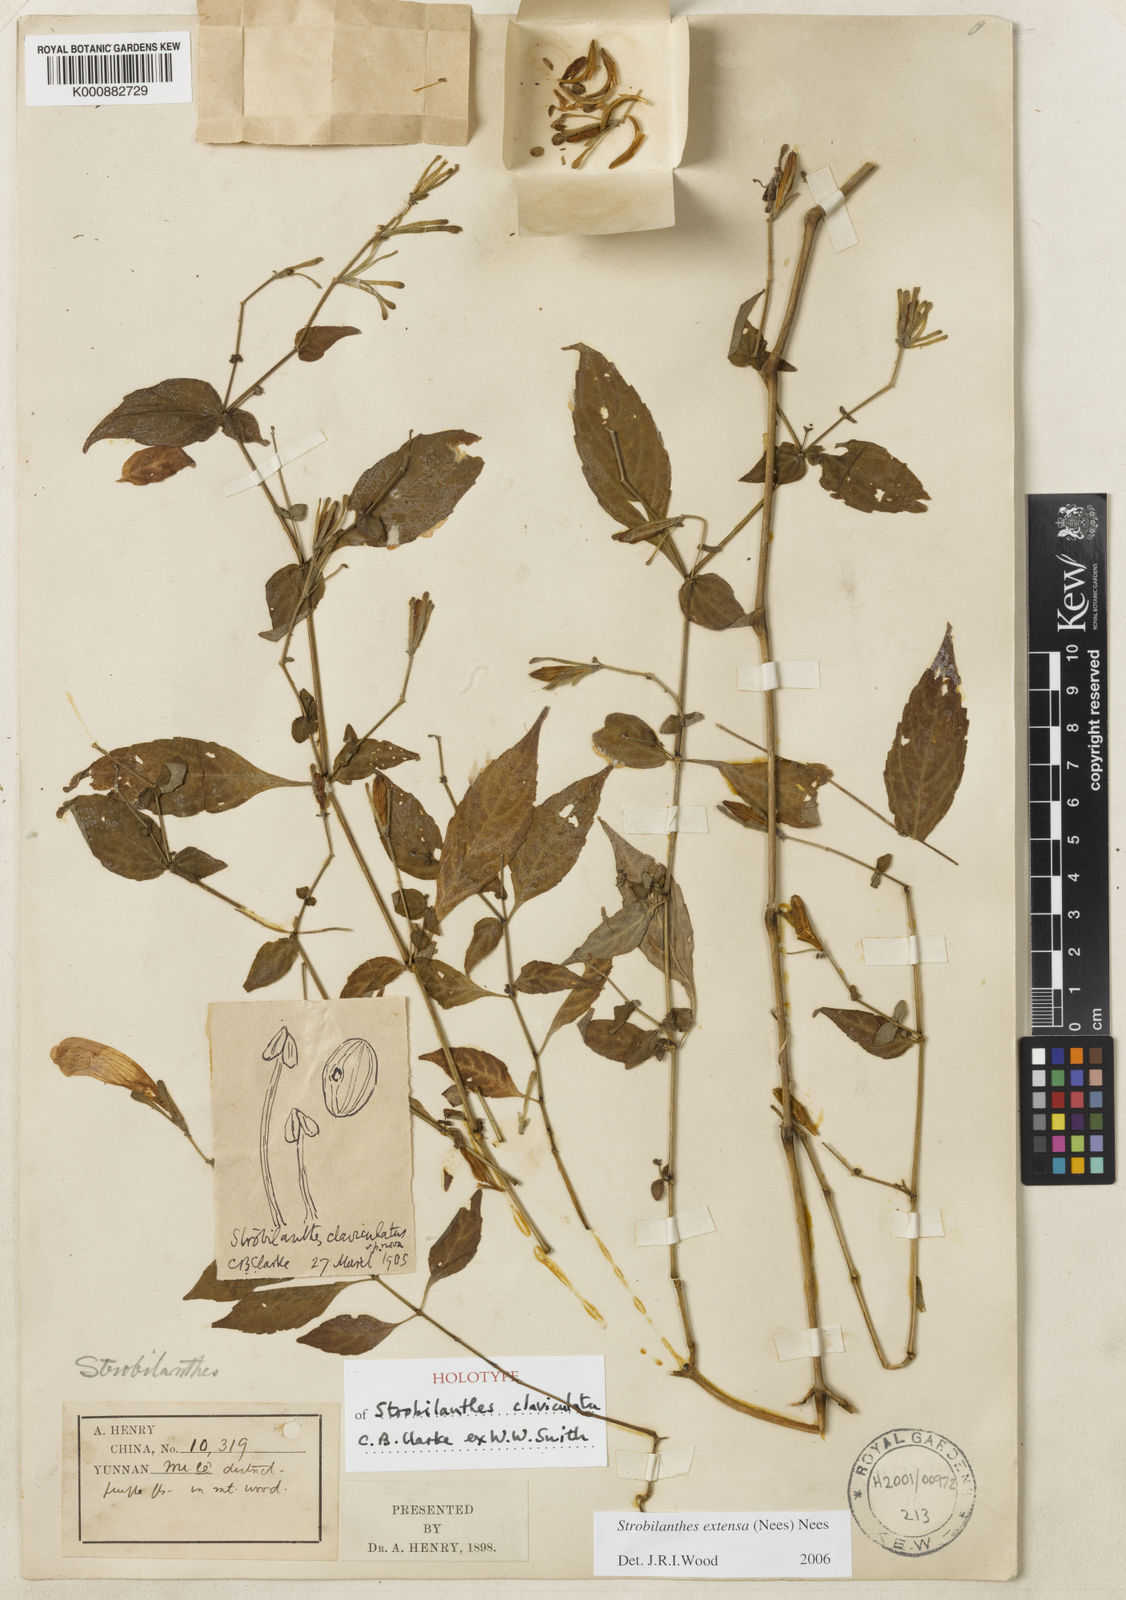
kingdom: Plantae
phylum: Tracheophyta
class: Magnoliopsida
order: Lamiales
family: Acanthaceae
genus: Strobilanthes
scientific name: Strobilanthes extensa
